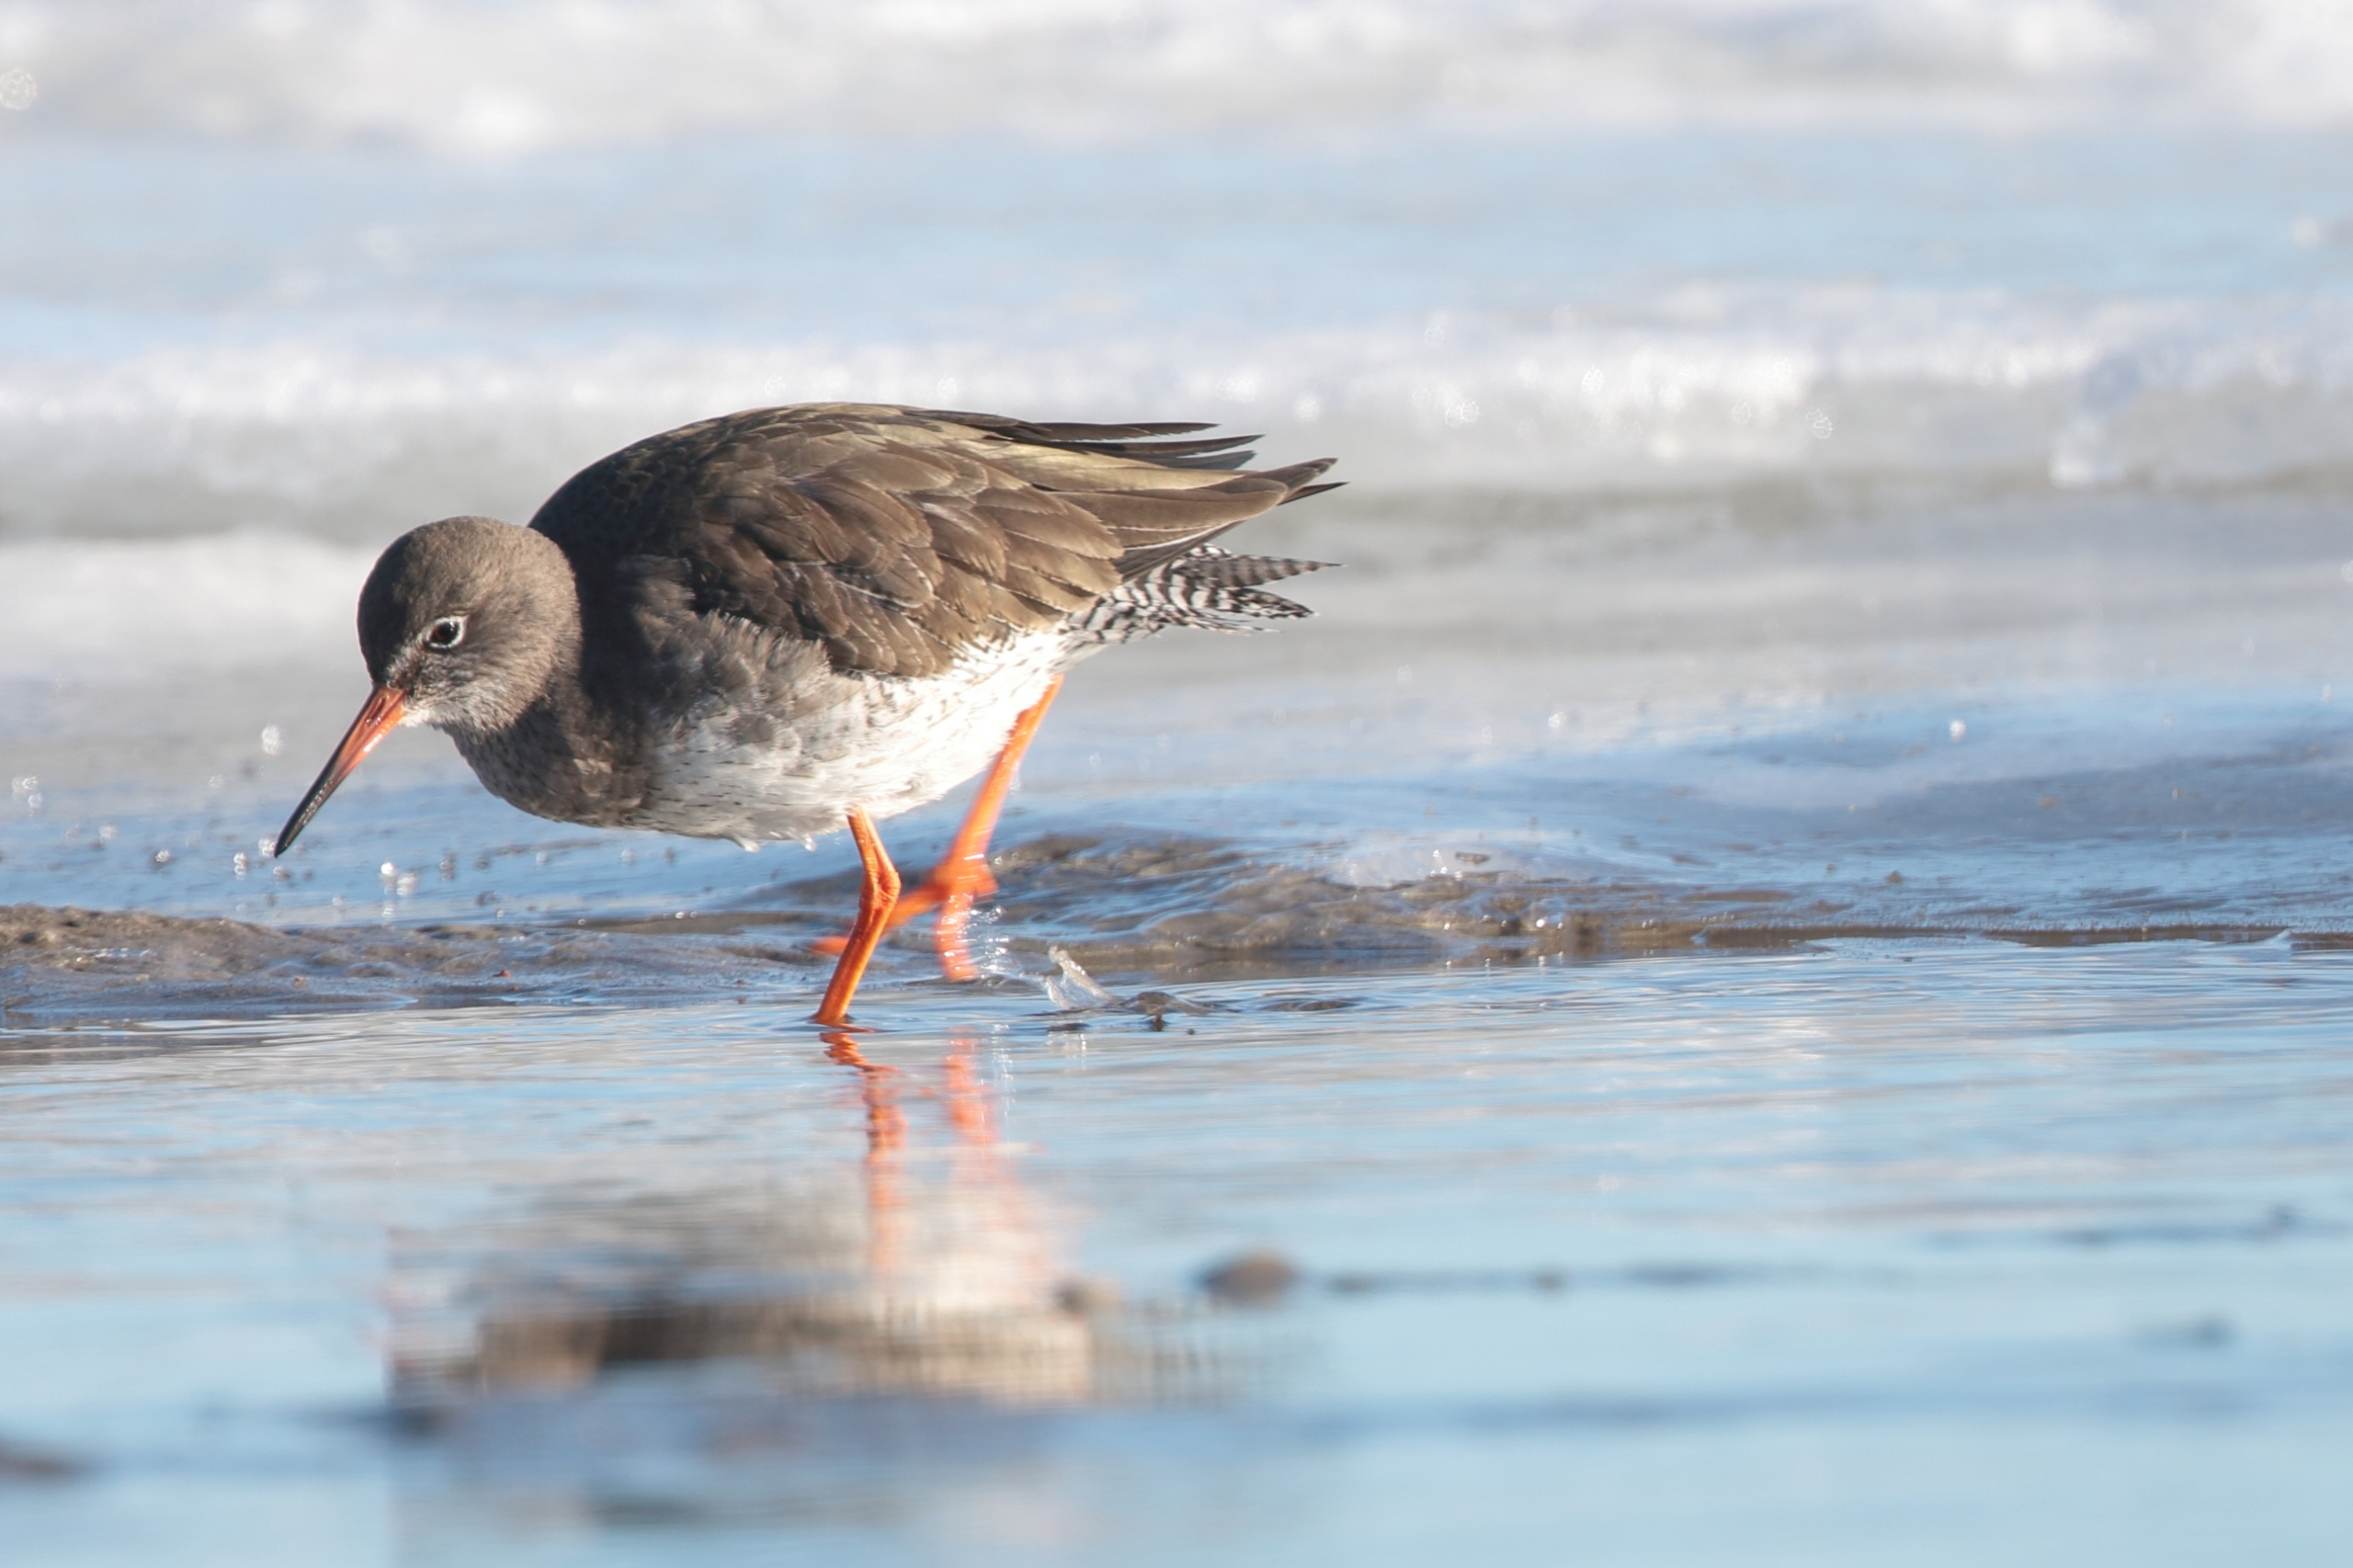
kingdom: Animalia
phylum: Chordata
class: Aves
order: Charadriiformes
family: Scolopacidae
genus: Tringa
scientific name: Tringa totanus
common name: Rødben
